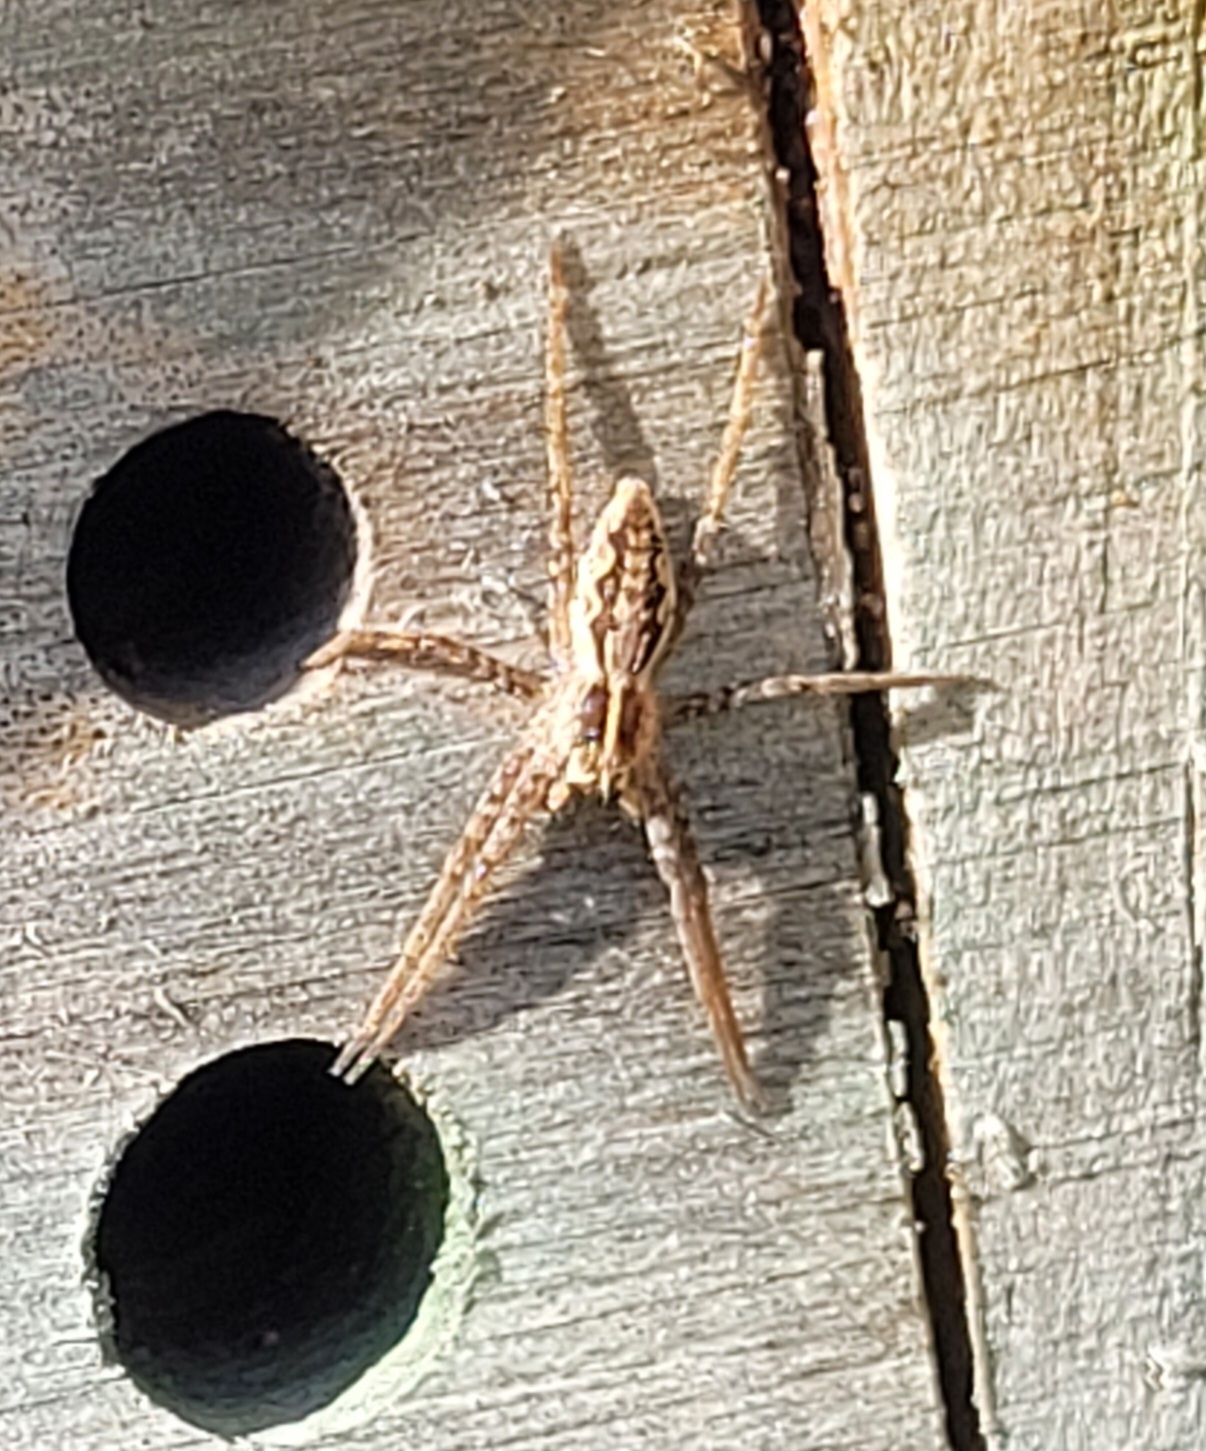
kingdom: Animalia
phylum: Arthropoda
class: Arachnida
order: Araneae
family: Pisauridae
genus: Pisaura
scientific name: Pisaura mirabilis
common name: Almindelig rovedderkop
